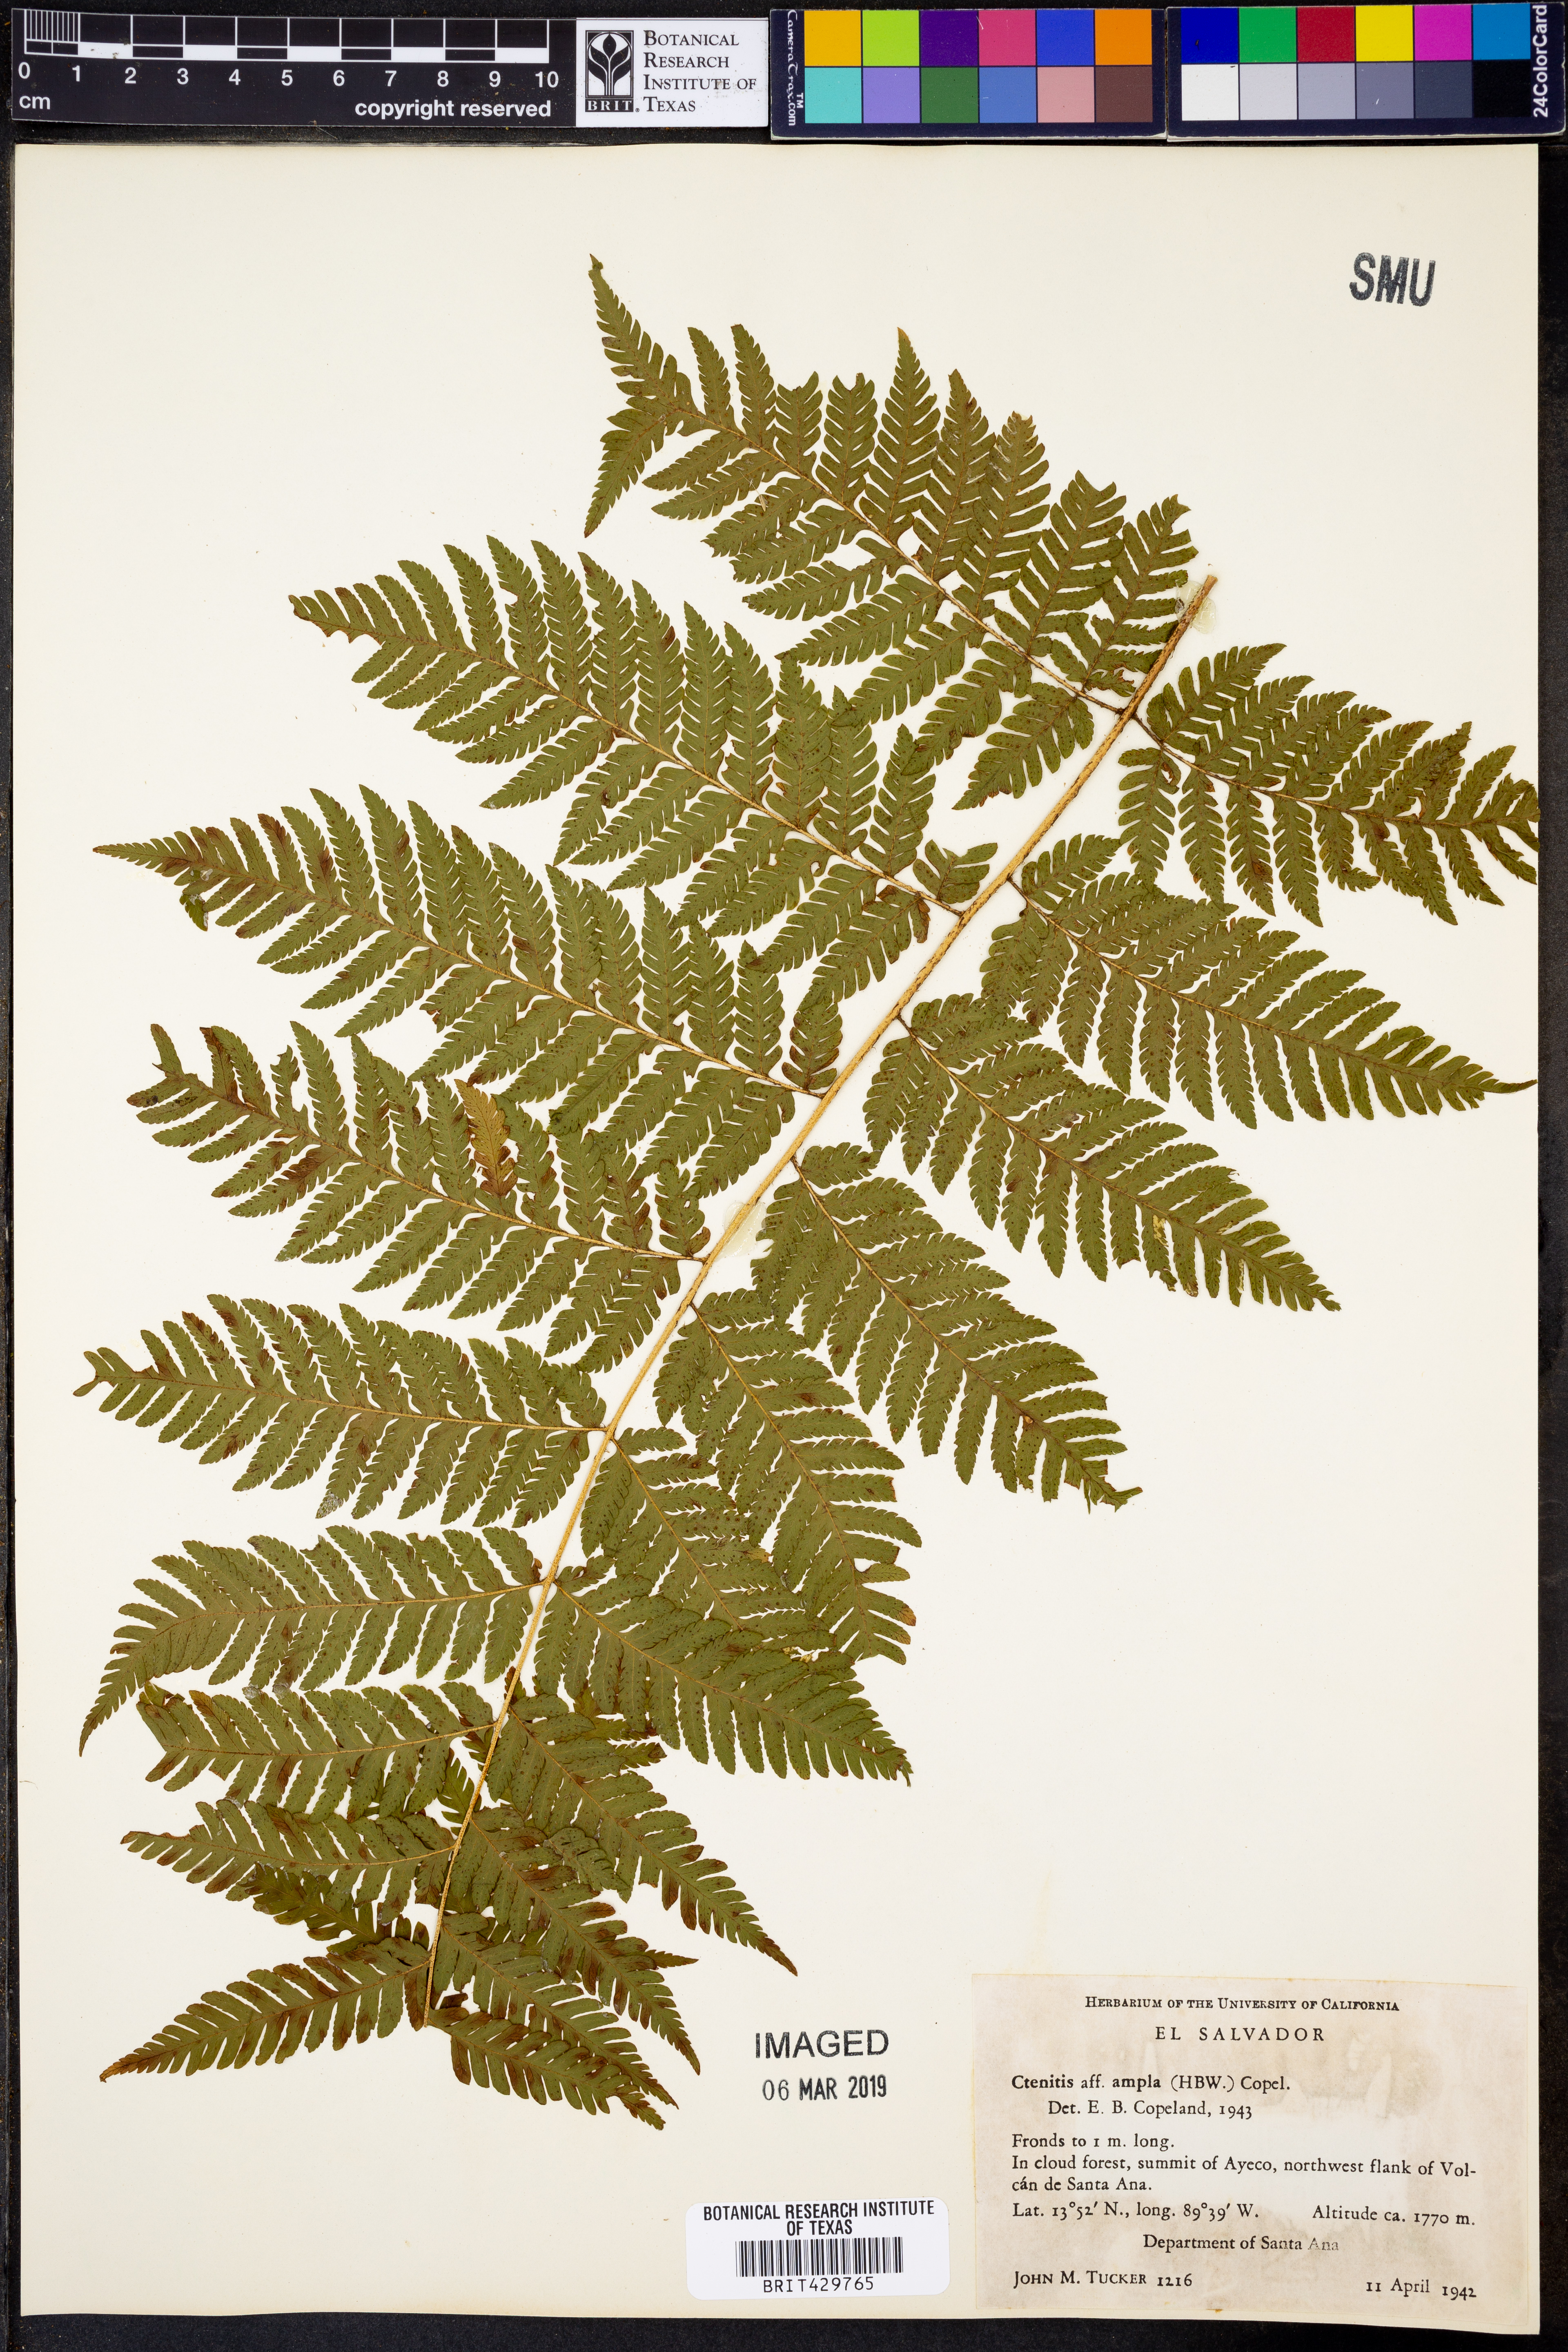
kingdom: Plantae
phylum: Tracheophyta
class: Polypodiopsida
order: Polypodiales
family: Dryopteridaceae
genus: Ctenitis
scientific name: Ctenitis sloanei
